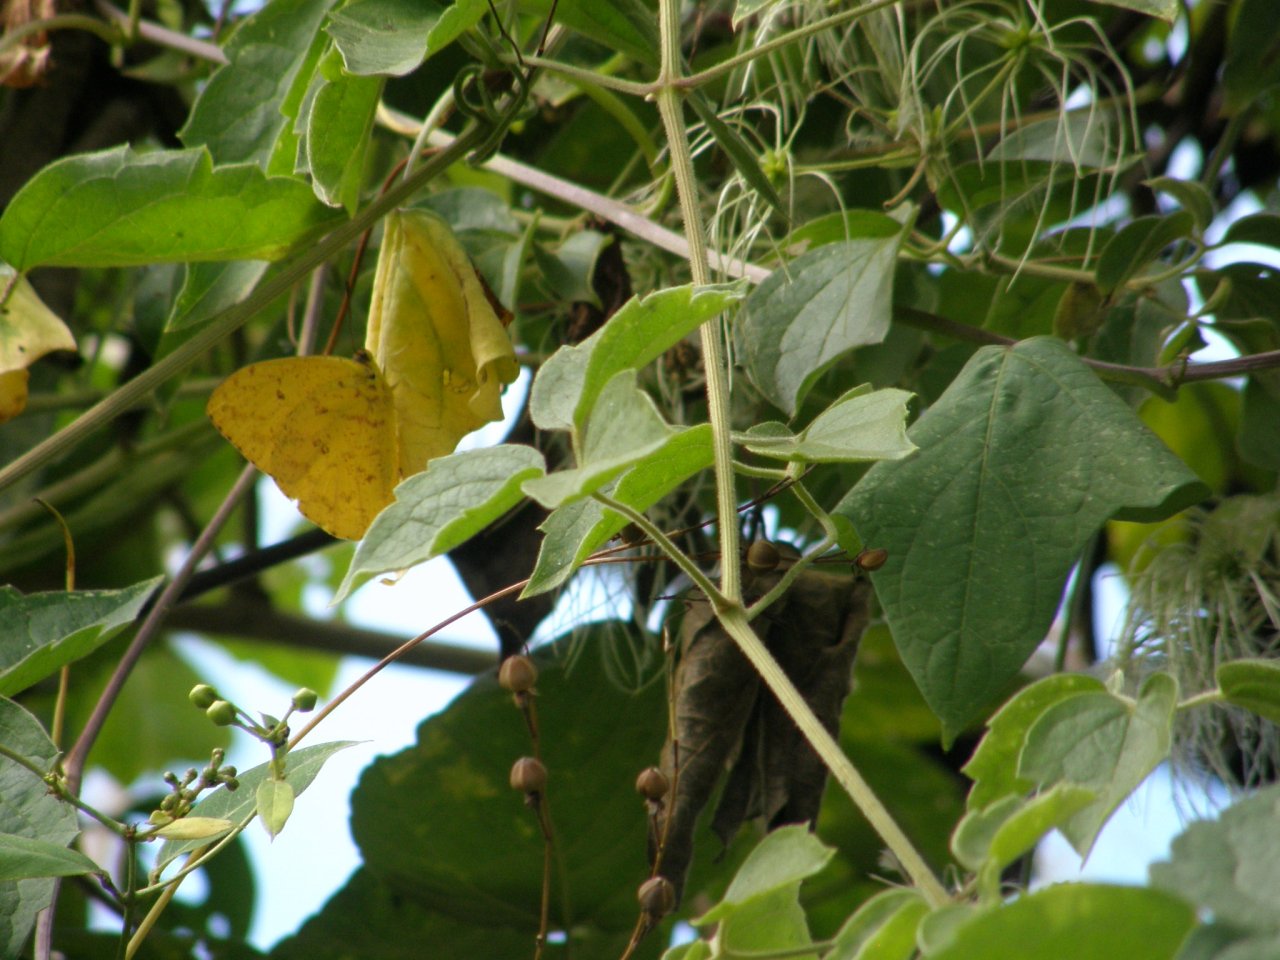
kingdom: Animalia
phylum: Arthropoda
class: Insecta
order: Lepidoptera
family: Pieridae
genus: Phoebis
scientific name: Phoebis neocypris
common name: Tailed Sulphur
